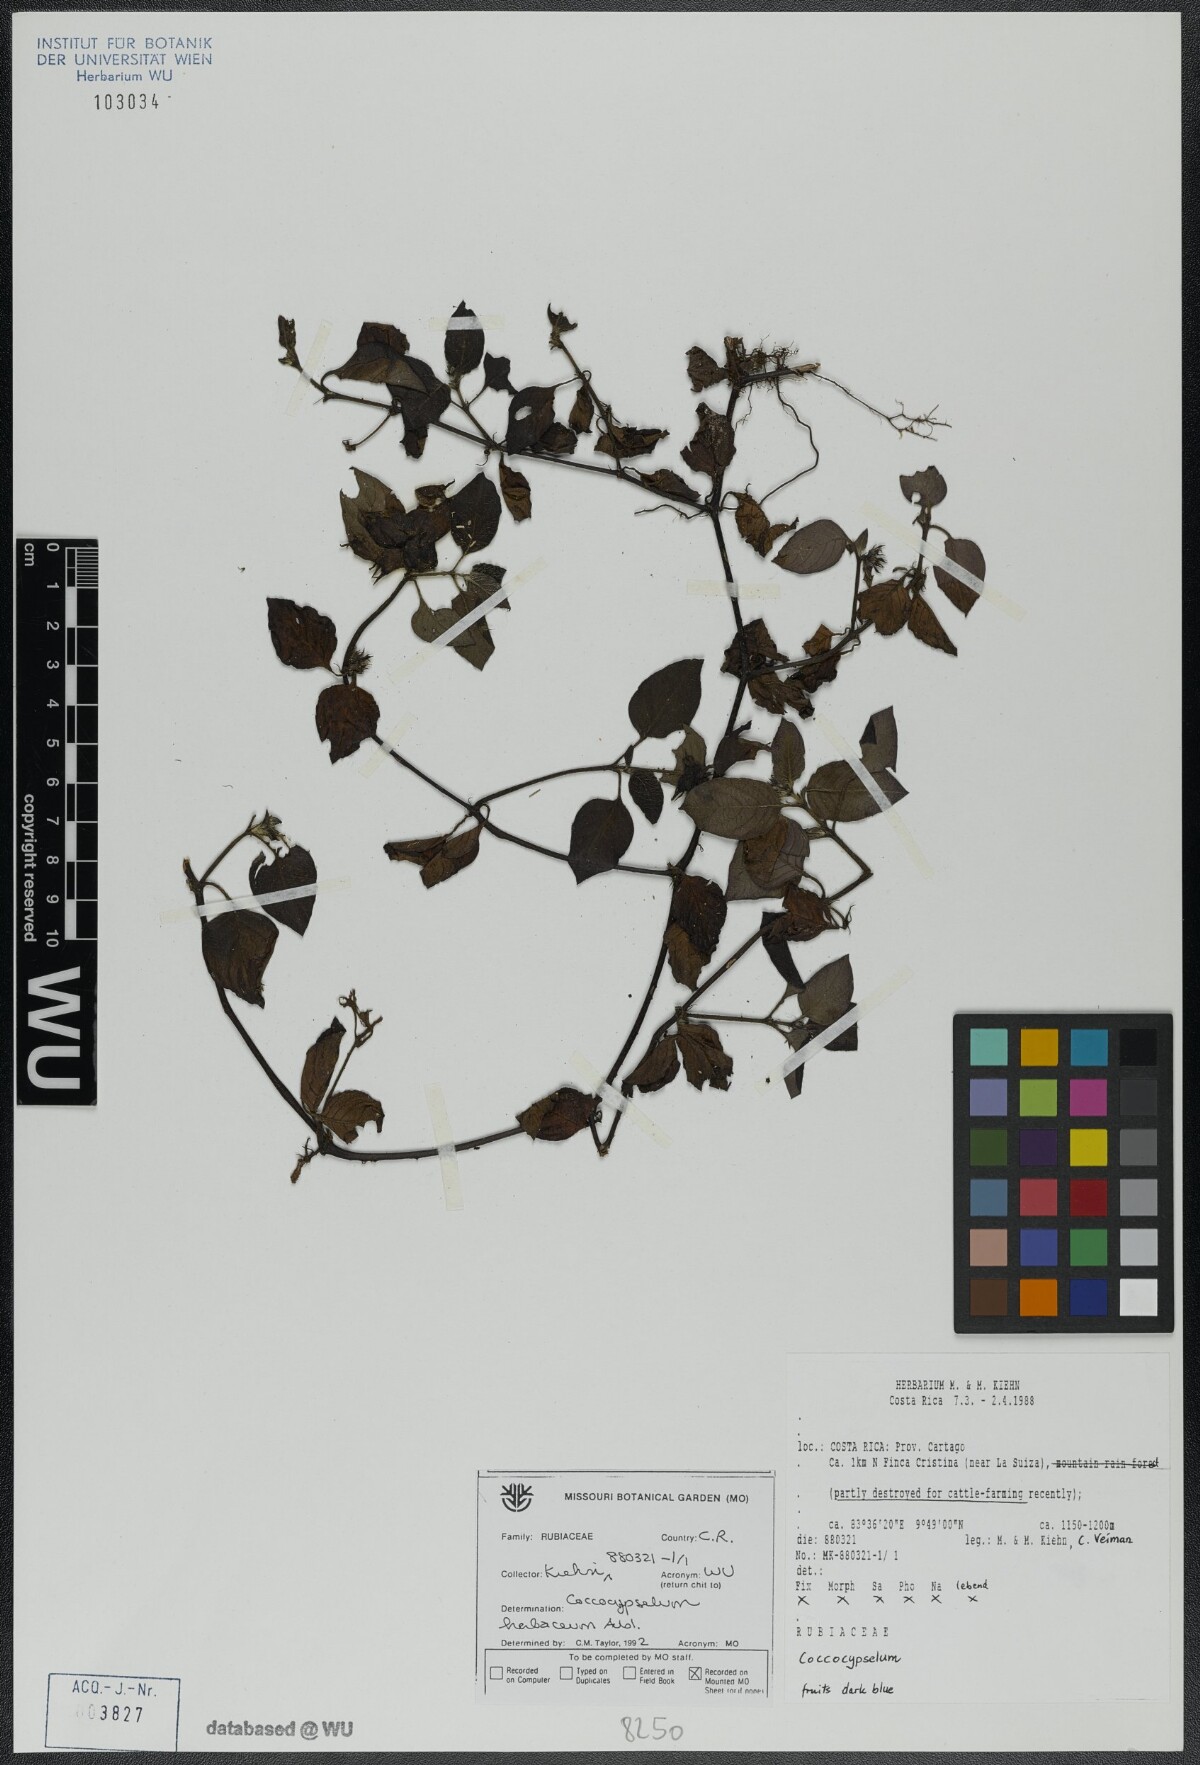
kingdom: Plantae
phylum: Tracheophyta
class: Magnoliopsida
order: Gentianales
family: Rubiaceae
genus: Coccocypselum
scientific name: Coccocypselum herbaceum
